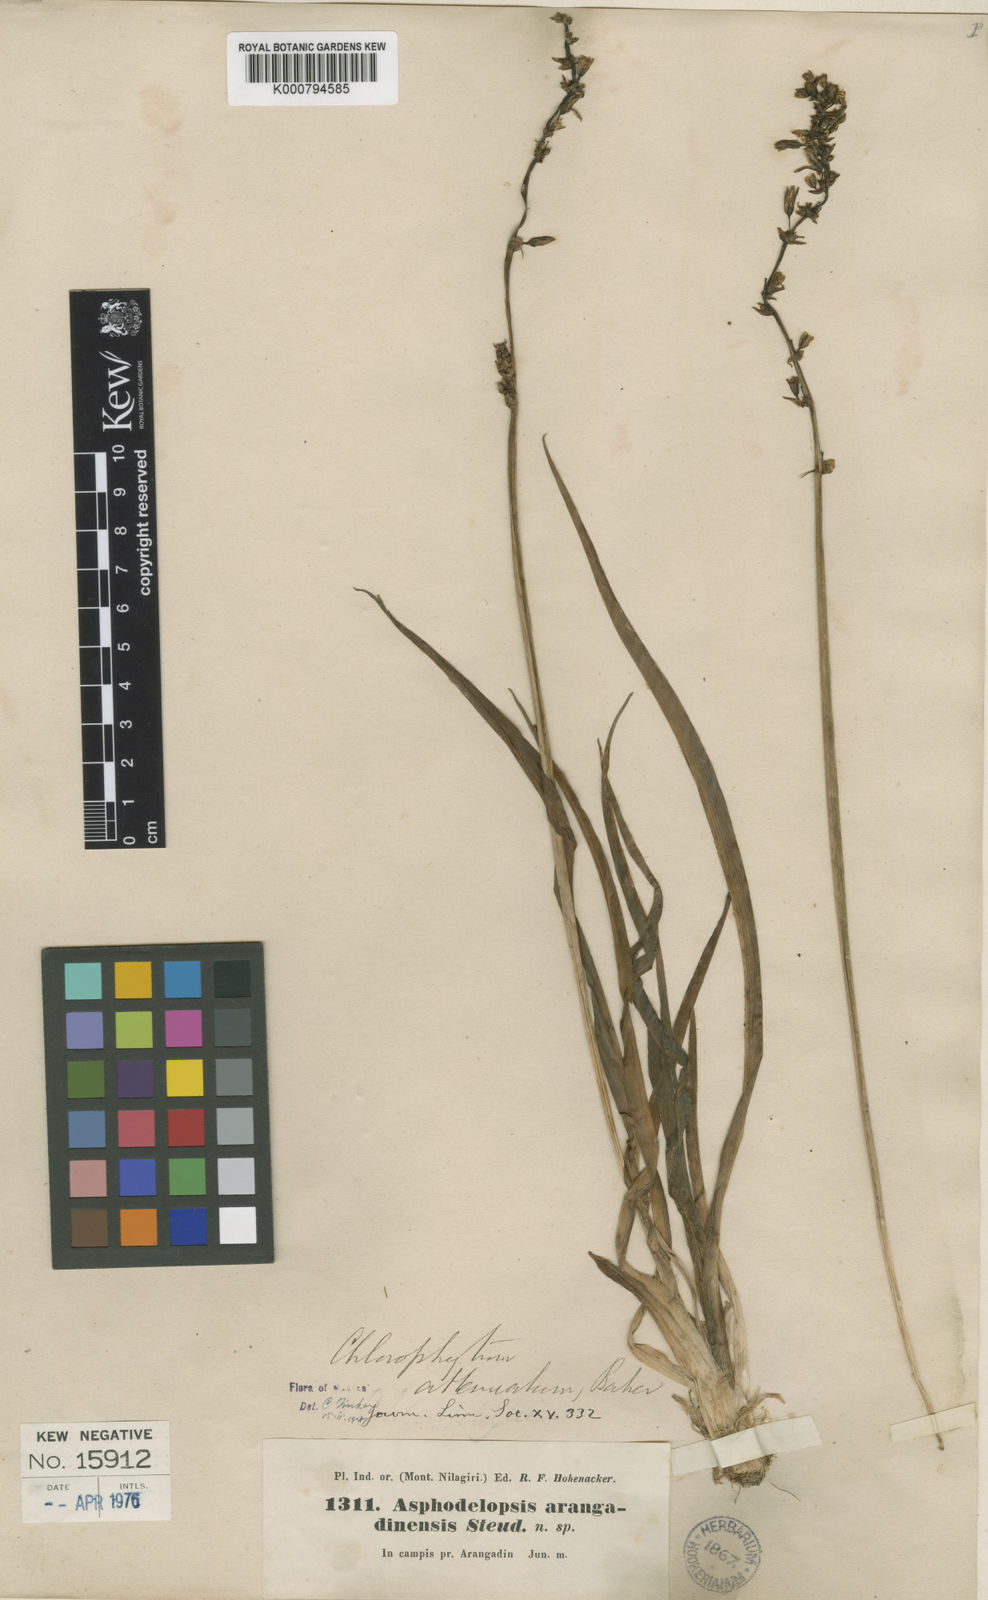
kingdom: Plantae
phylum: Tracheophyta
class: Liliopsida
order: Asparagales
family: Asparagaceae
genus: Chlorophytum
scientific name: Chlorophytum indicum
